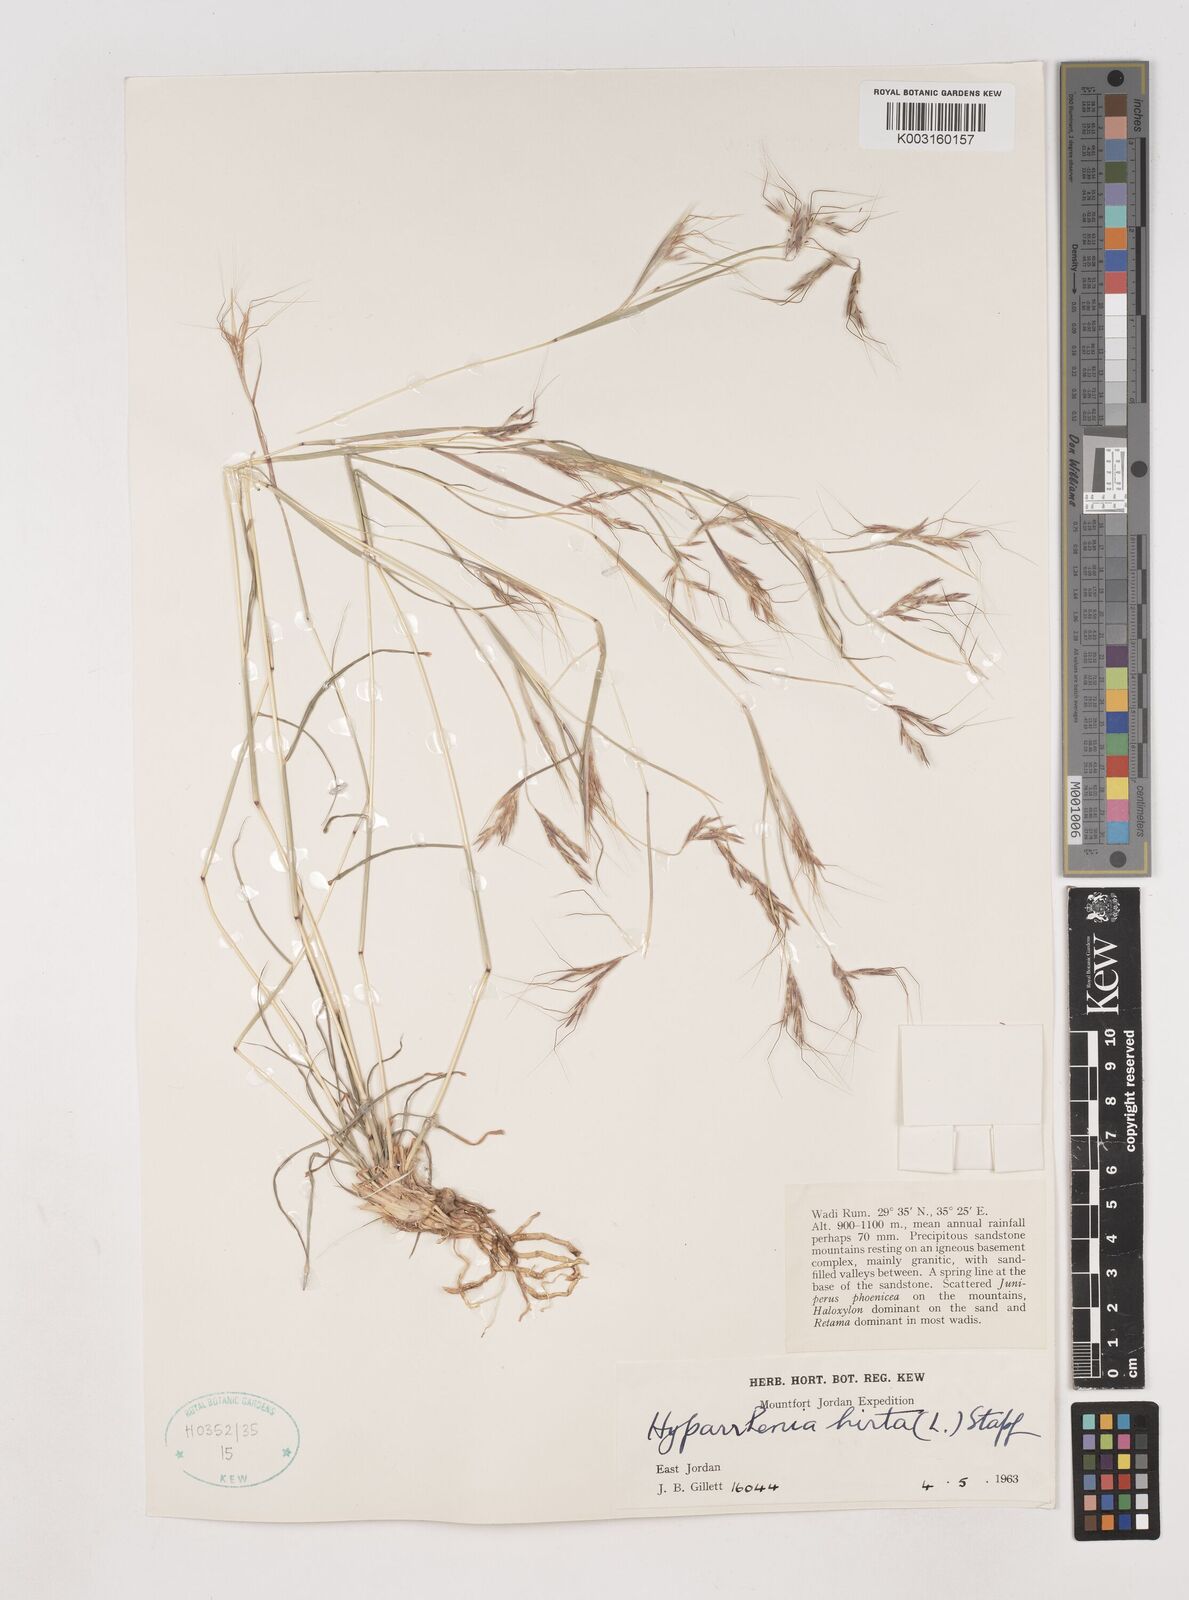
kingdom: Plantae
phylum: Tracheophyta
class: Liliopsida
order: Poales
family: Poaceae
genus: Hyparrhenia
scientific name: Hyparrhenia hirta
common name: Thatching grass
